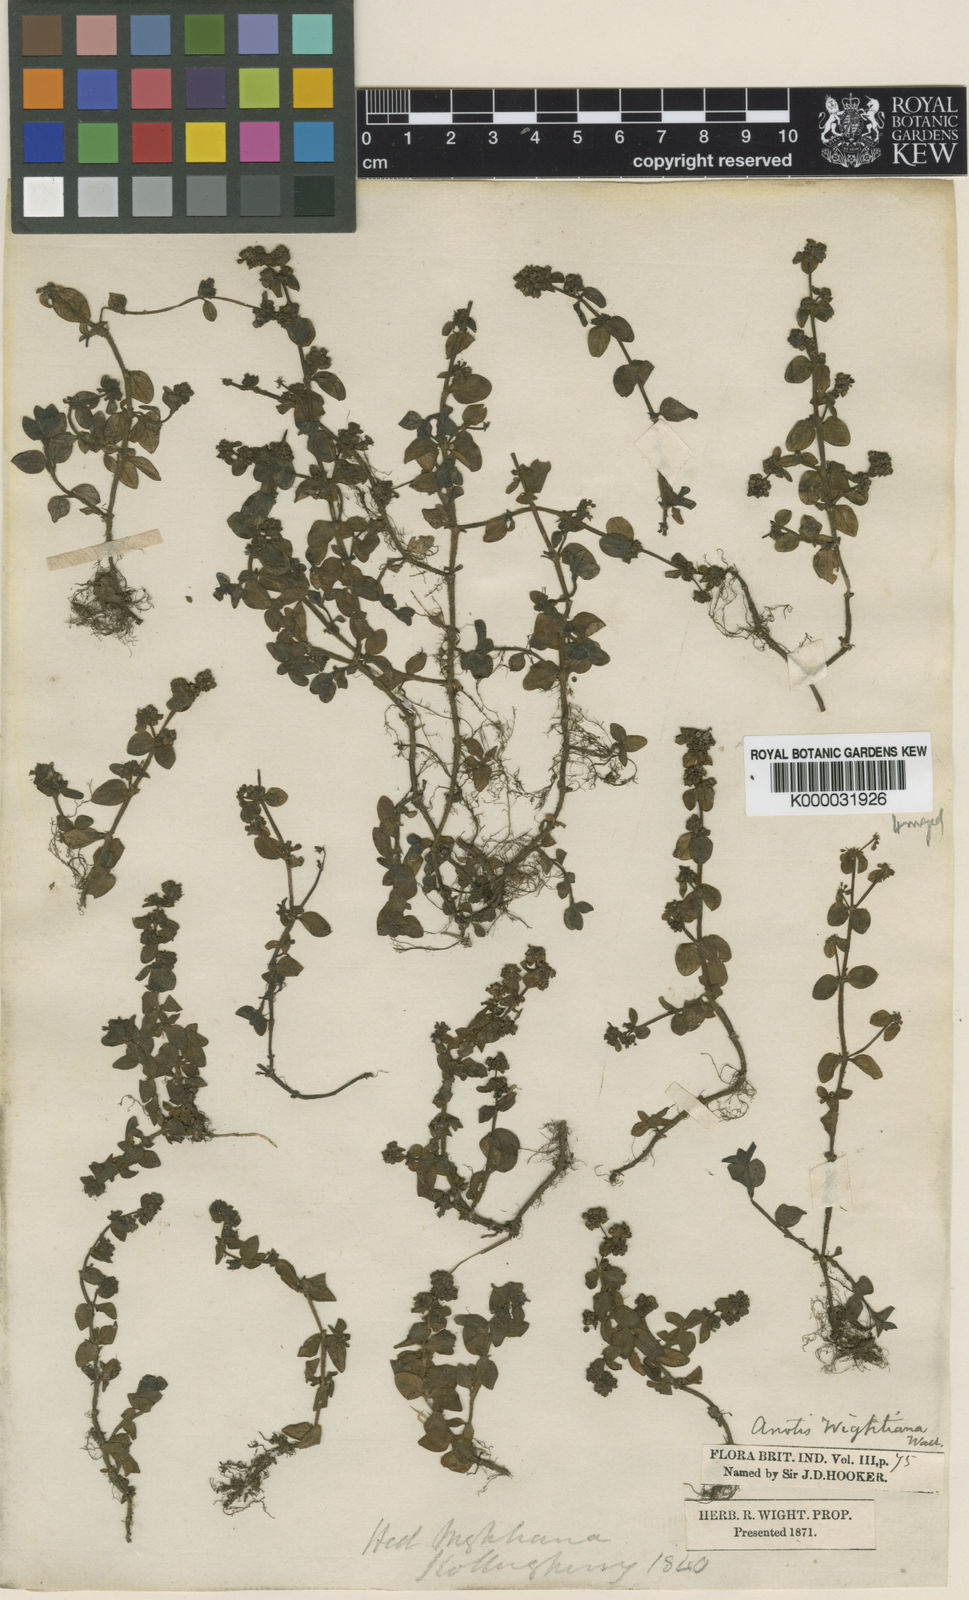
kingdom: Plantae
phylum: Tracheophyta
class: Magnoliopsida
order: Gentianales
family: Rubiaceae
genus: Neanotis
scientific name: Neanotis wightiana
